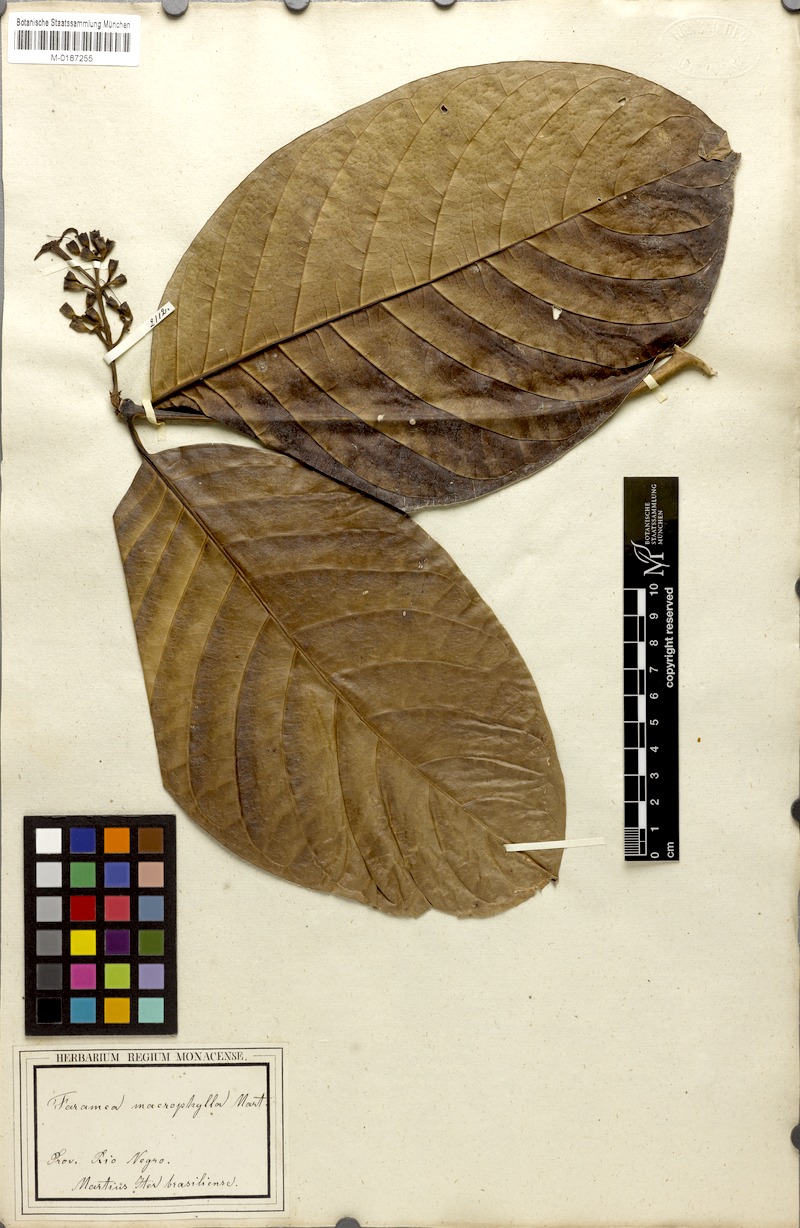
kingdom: Plantae
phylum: Tracheophyta
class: Magnoliopsida
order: Gentianales
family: Rubiaceae
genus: Coussarea
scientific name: Coussarea macrophylla
